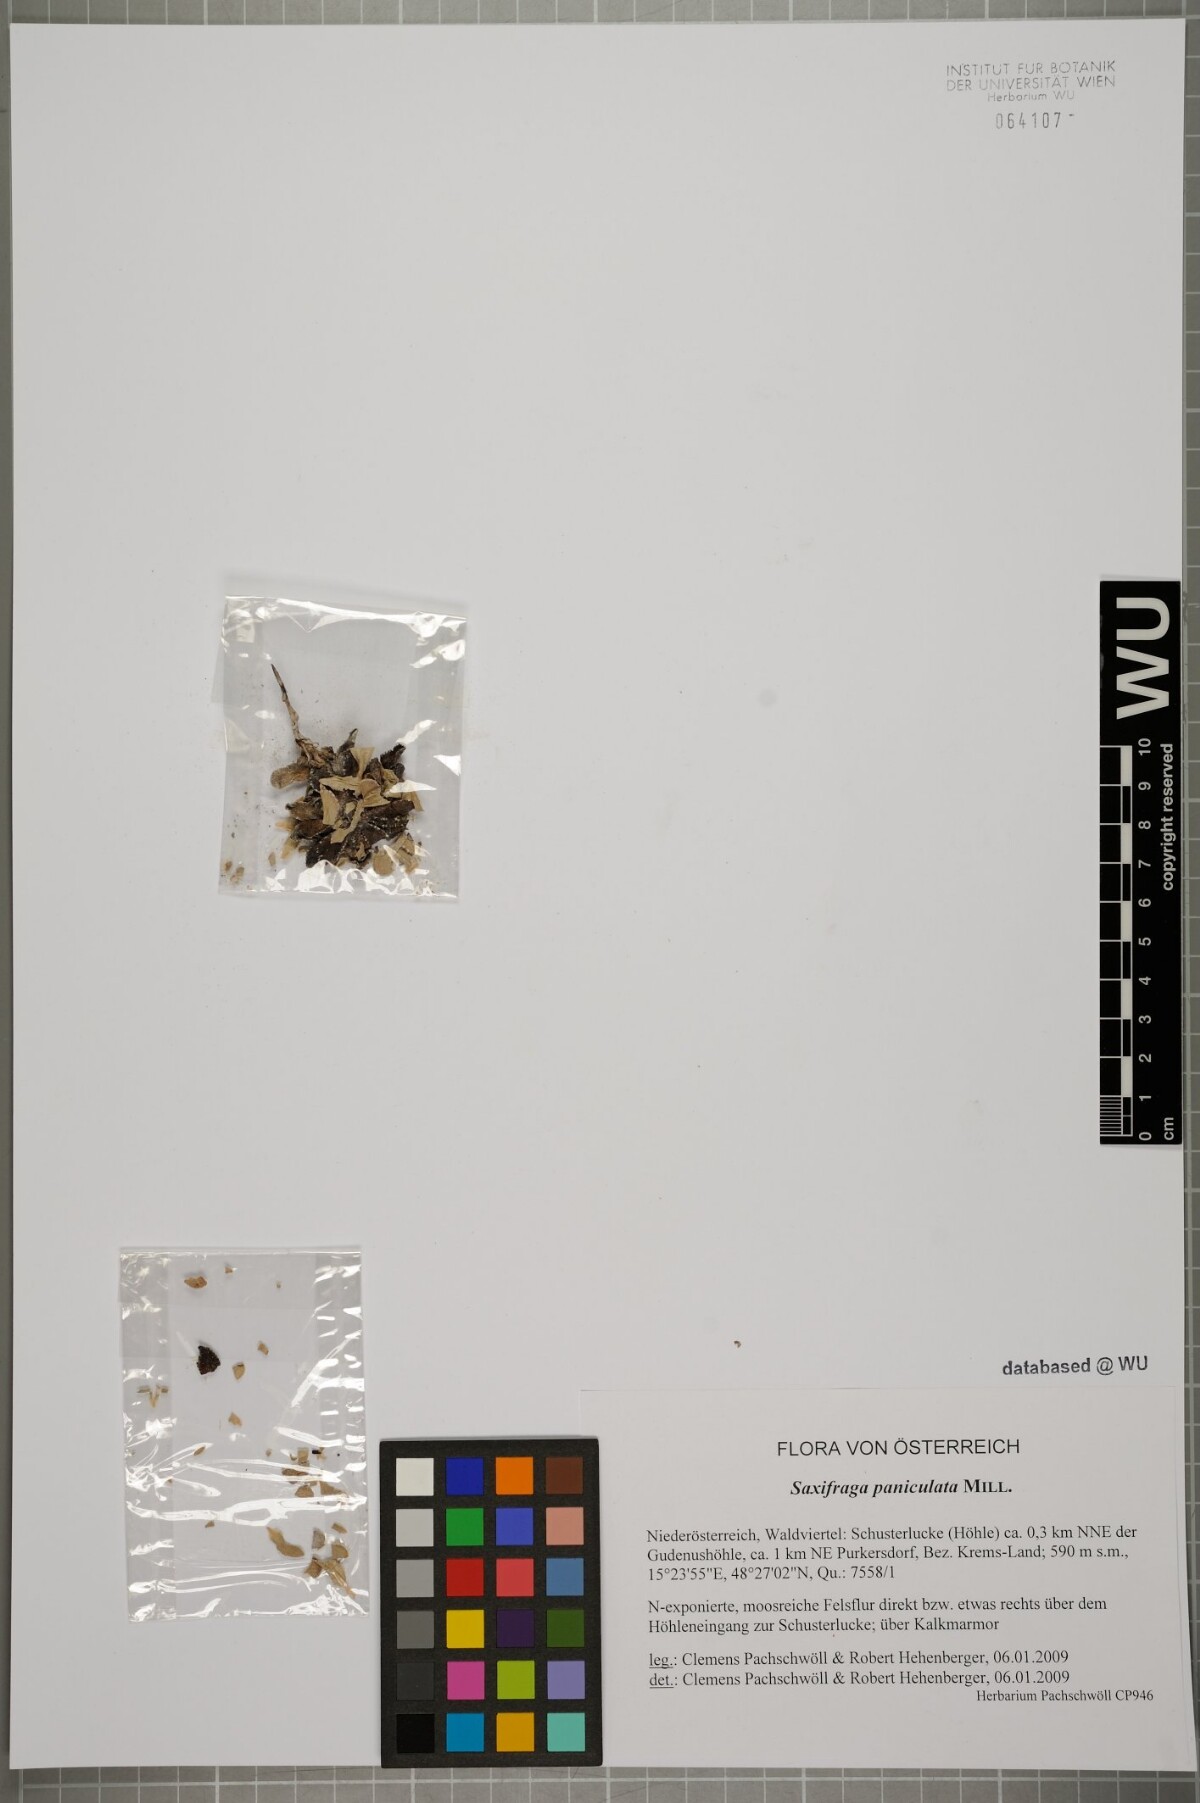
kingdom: Plantae
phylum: Tracheophyta
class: Magnoliopsida
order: Saxifragales
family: Saxifragaceae
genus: Saxifraga
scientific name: Saxifraga paniculata
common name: Livelong saxifrage
